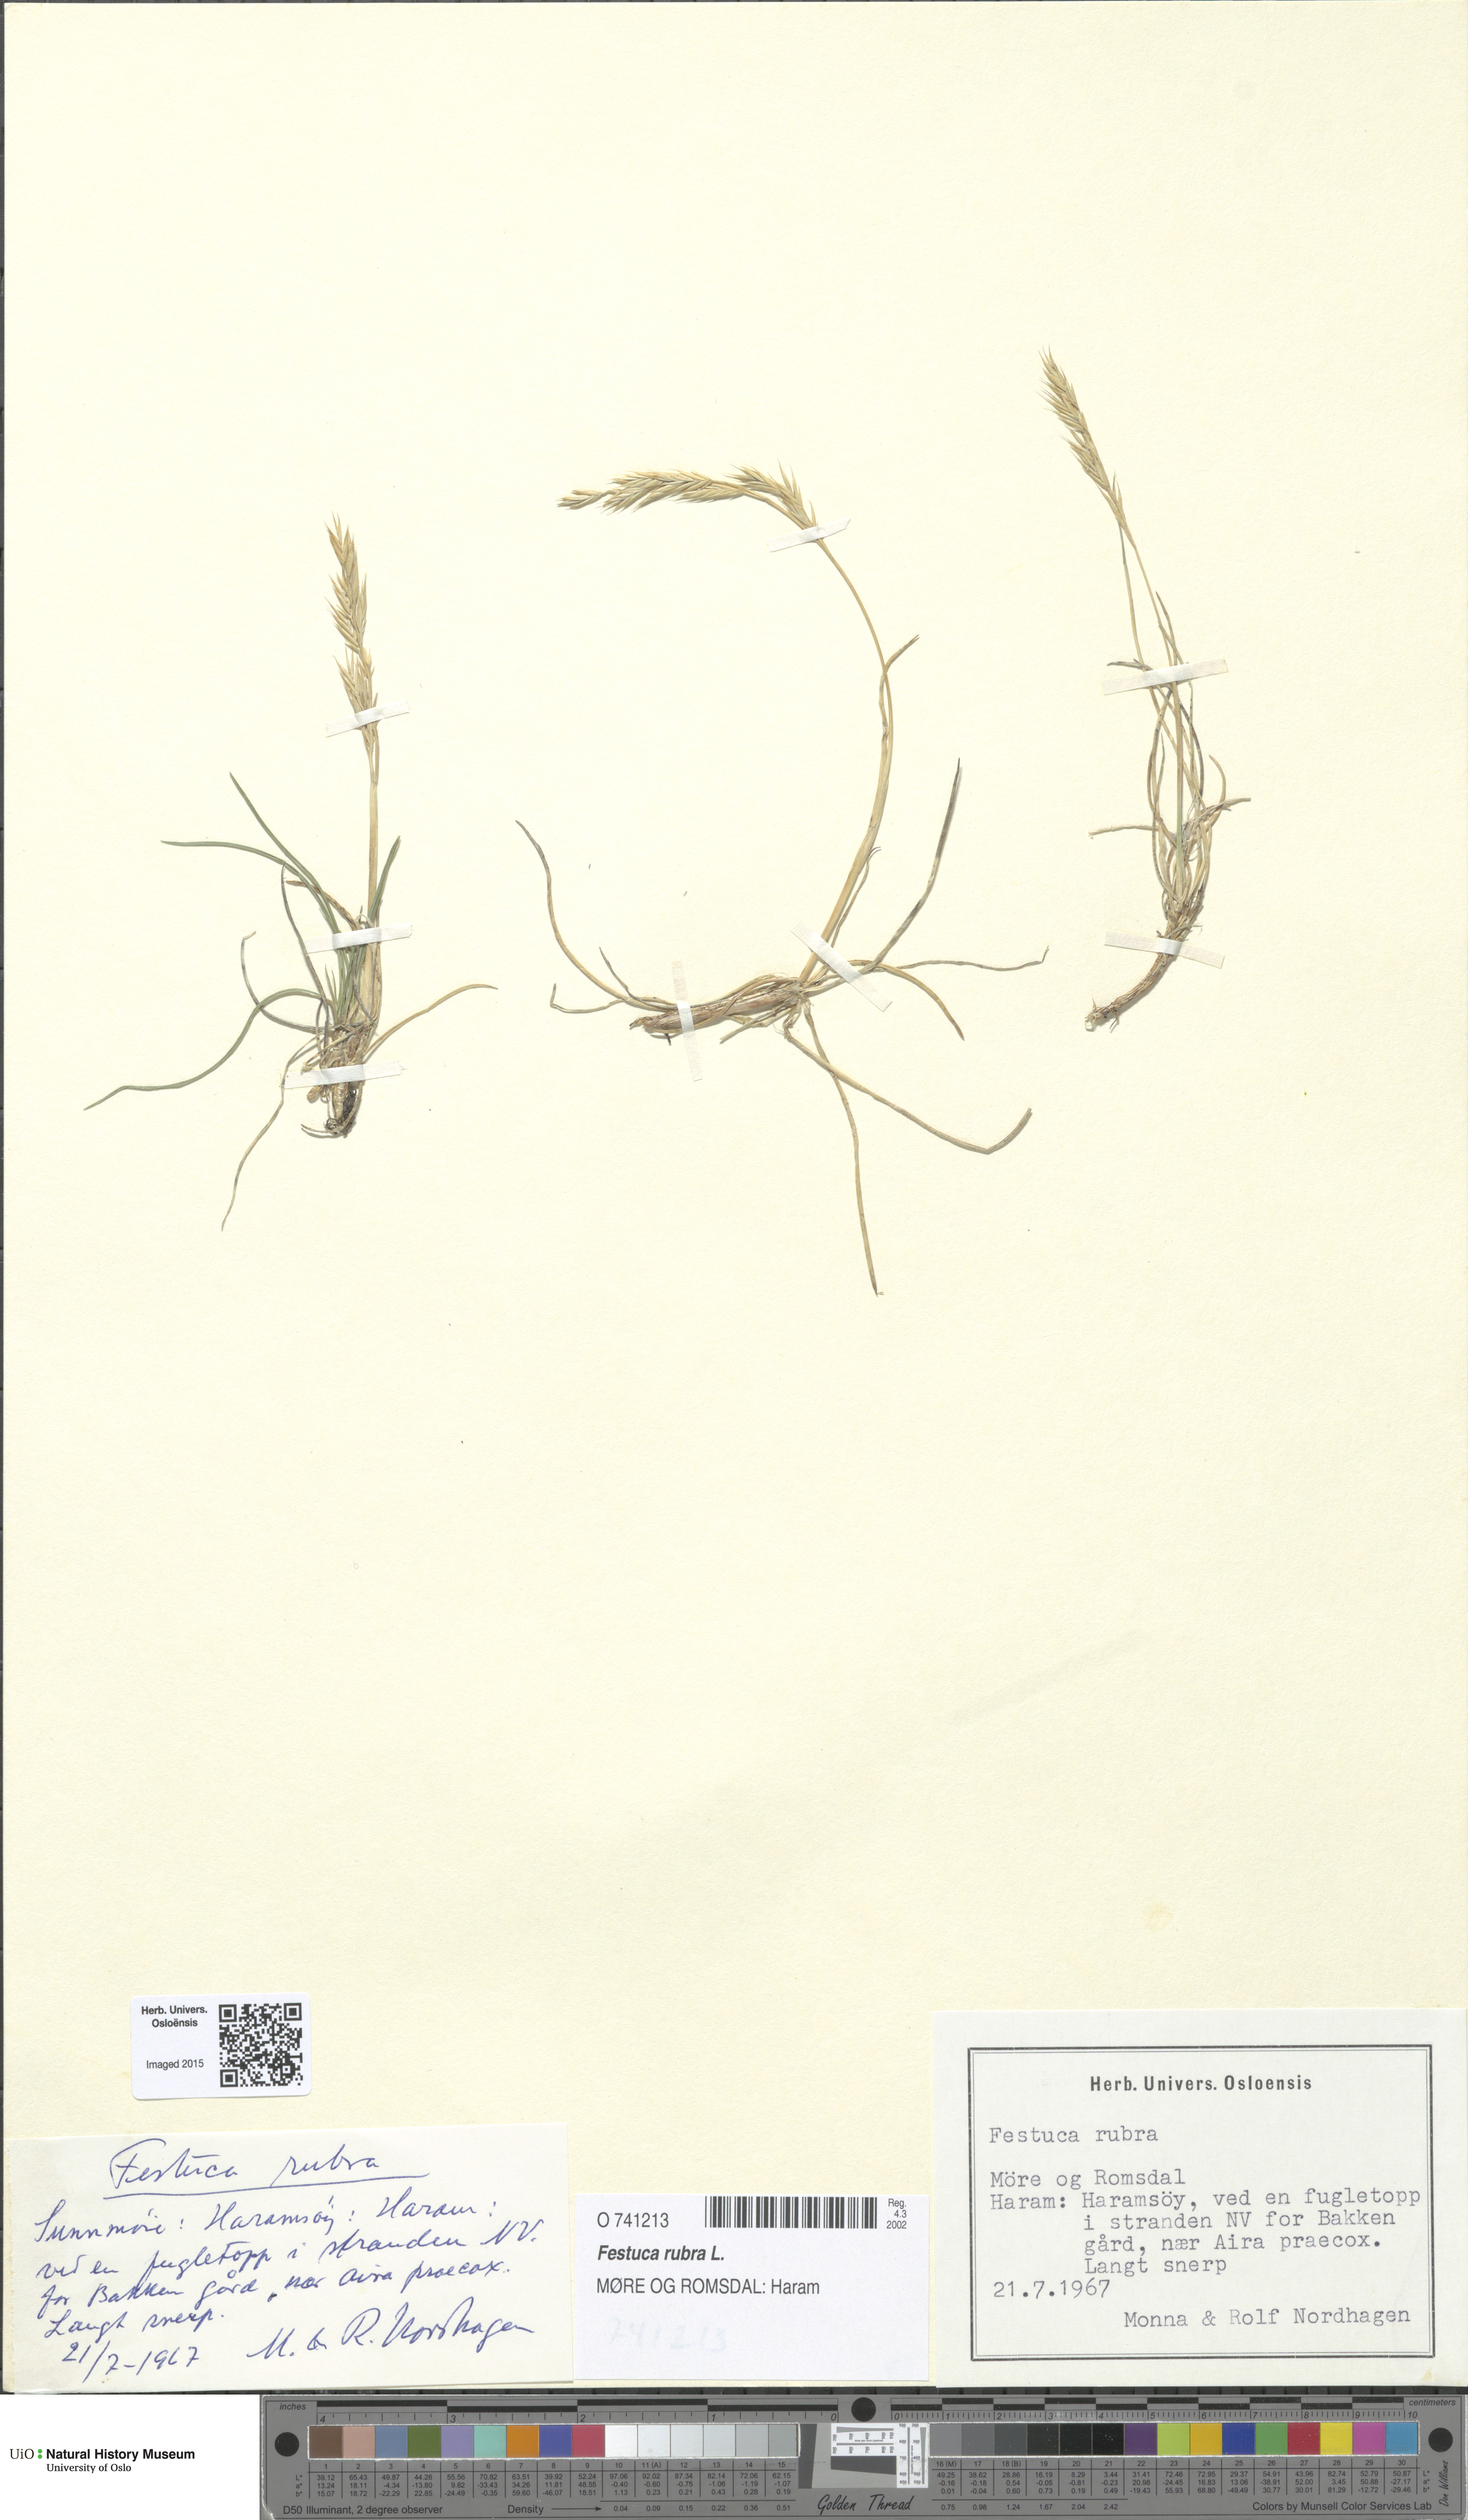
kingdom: Plantae
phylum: Tracheophyta
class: Liliopsida
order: Poales
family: Poaceae
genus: Festuca
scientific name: Festuca rubra
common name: Red fescue
